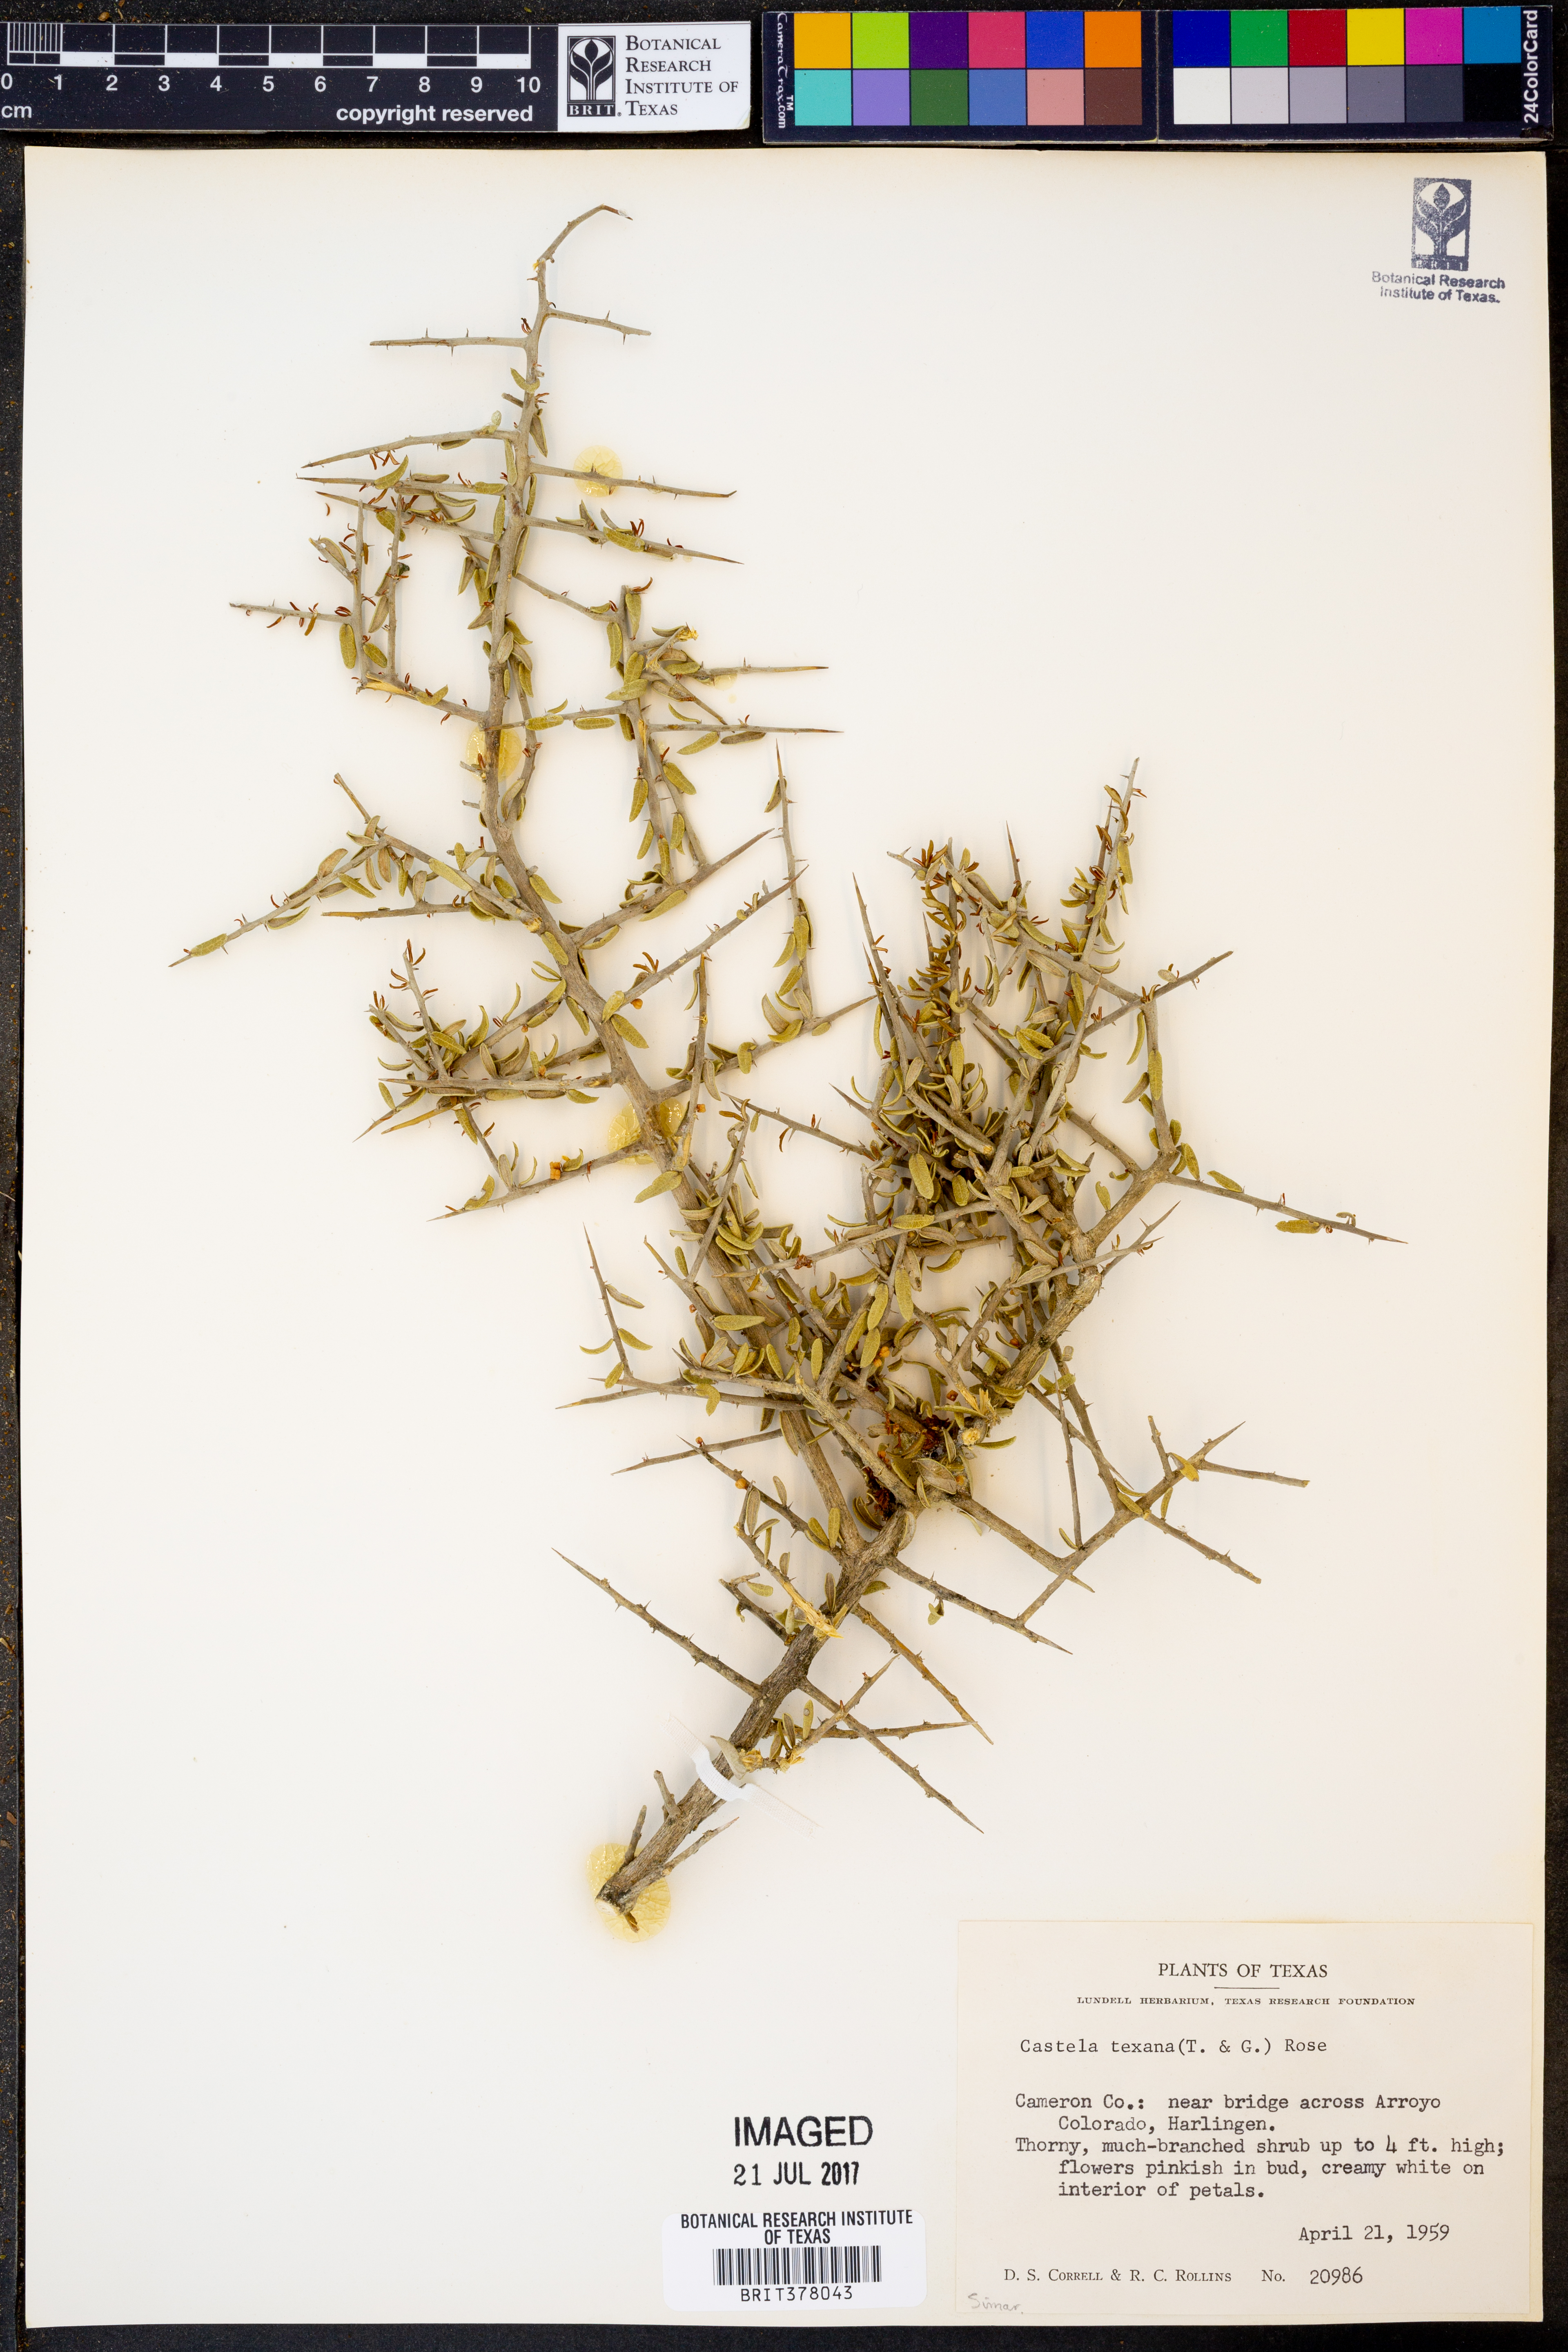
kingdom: Plantae
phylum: Tracheophyta
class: Magnoliopsida
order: Sapindales
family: Simaroubaceae
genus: Castela
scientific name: Castela tortuosa
